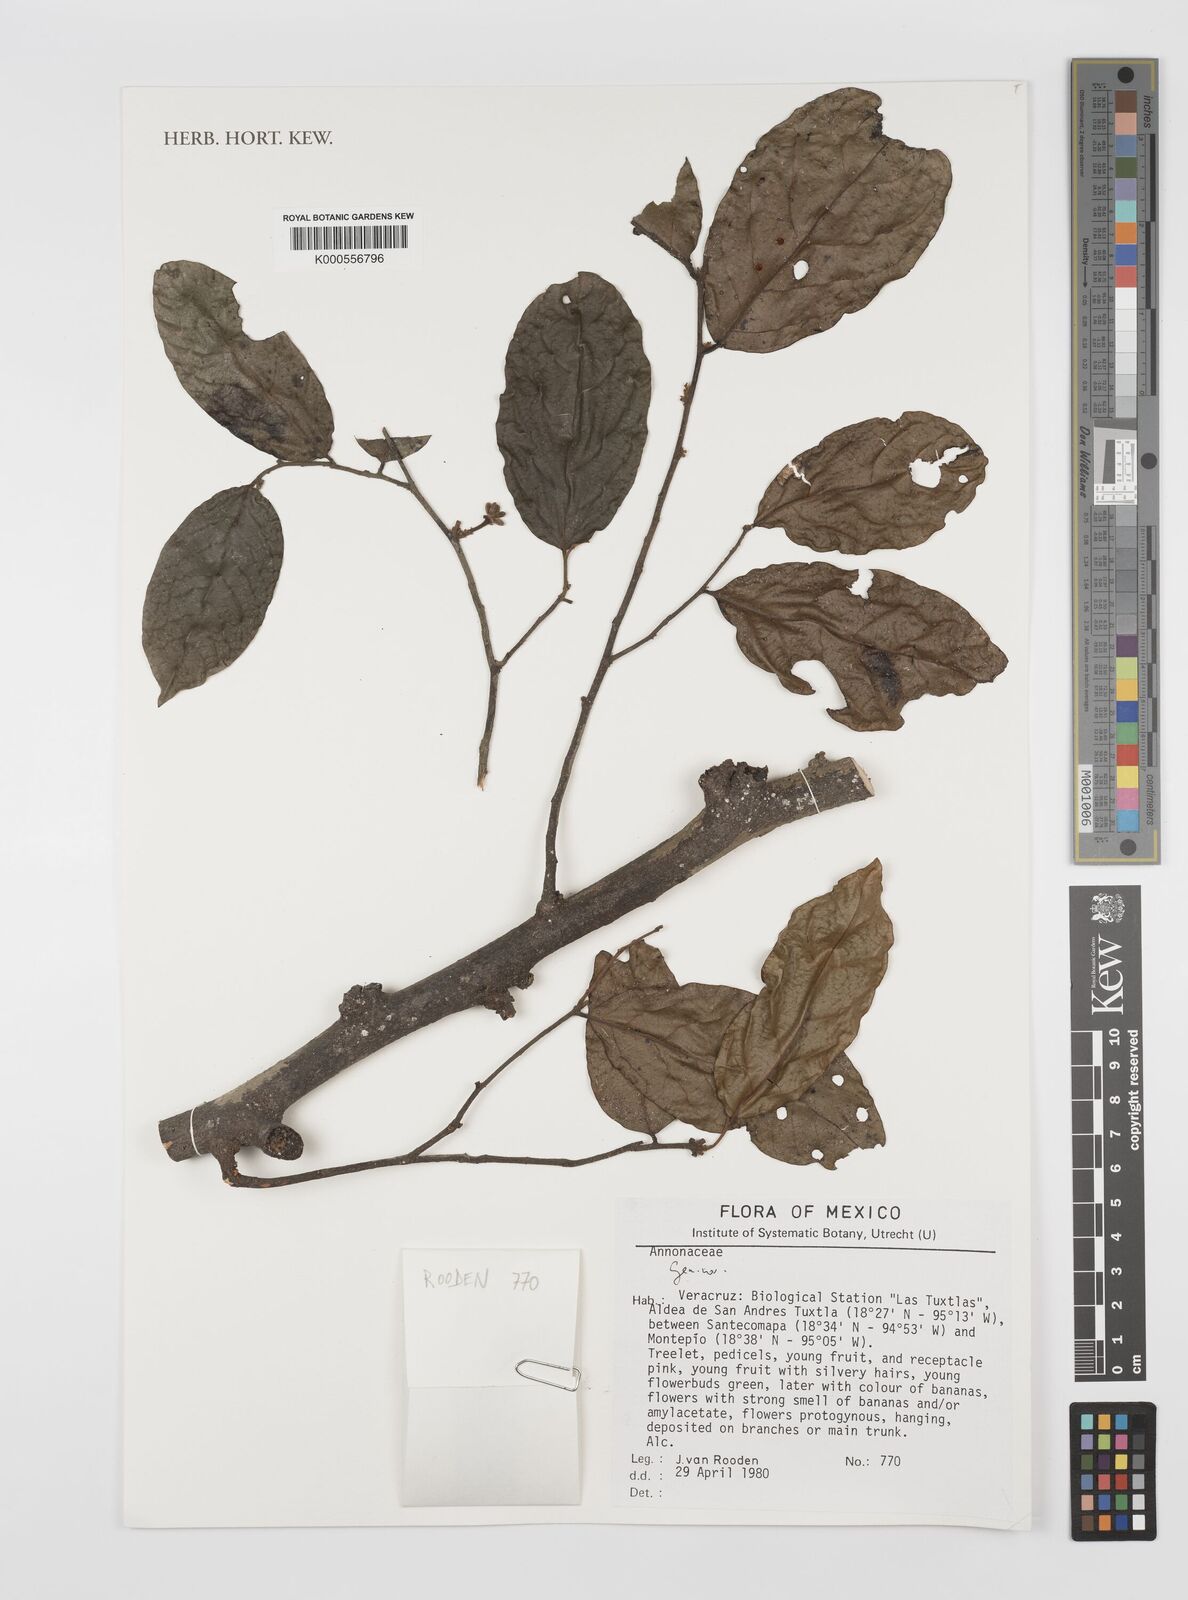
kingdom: Plantae
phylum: Tracheophyta
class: Magnoliopsida
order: Magnoliales
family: Annonaceae
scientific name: Annonaceae
